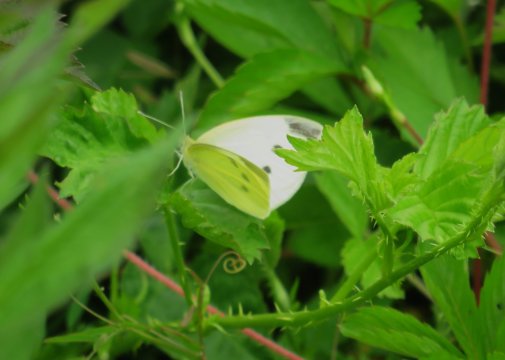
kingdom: Animalia
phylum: Arthropoda
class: Insecta
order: Lepidoptera
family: Pieridae
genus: Pieris
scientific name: Pieris rapae
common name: Cabbage White
